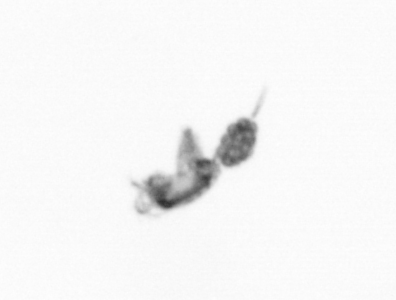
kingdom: Animalia
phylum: Arthropoda
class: Copepoda
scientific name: Copepoda
